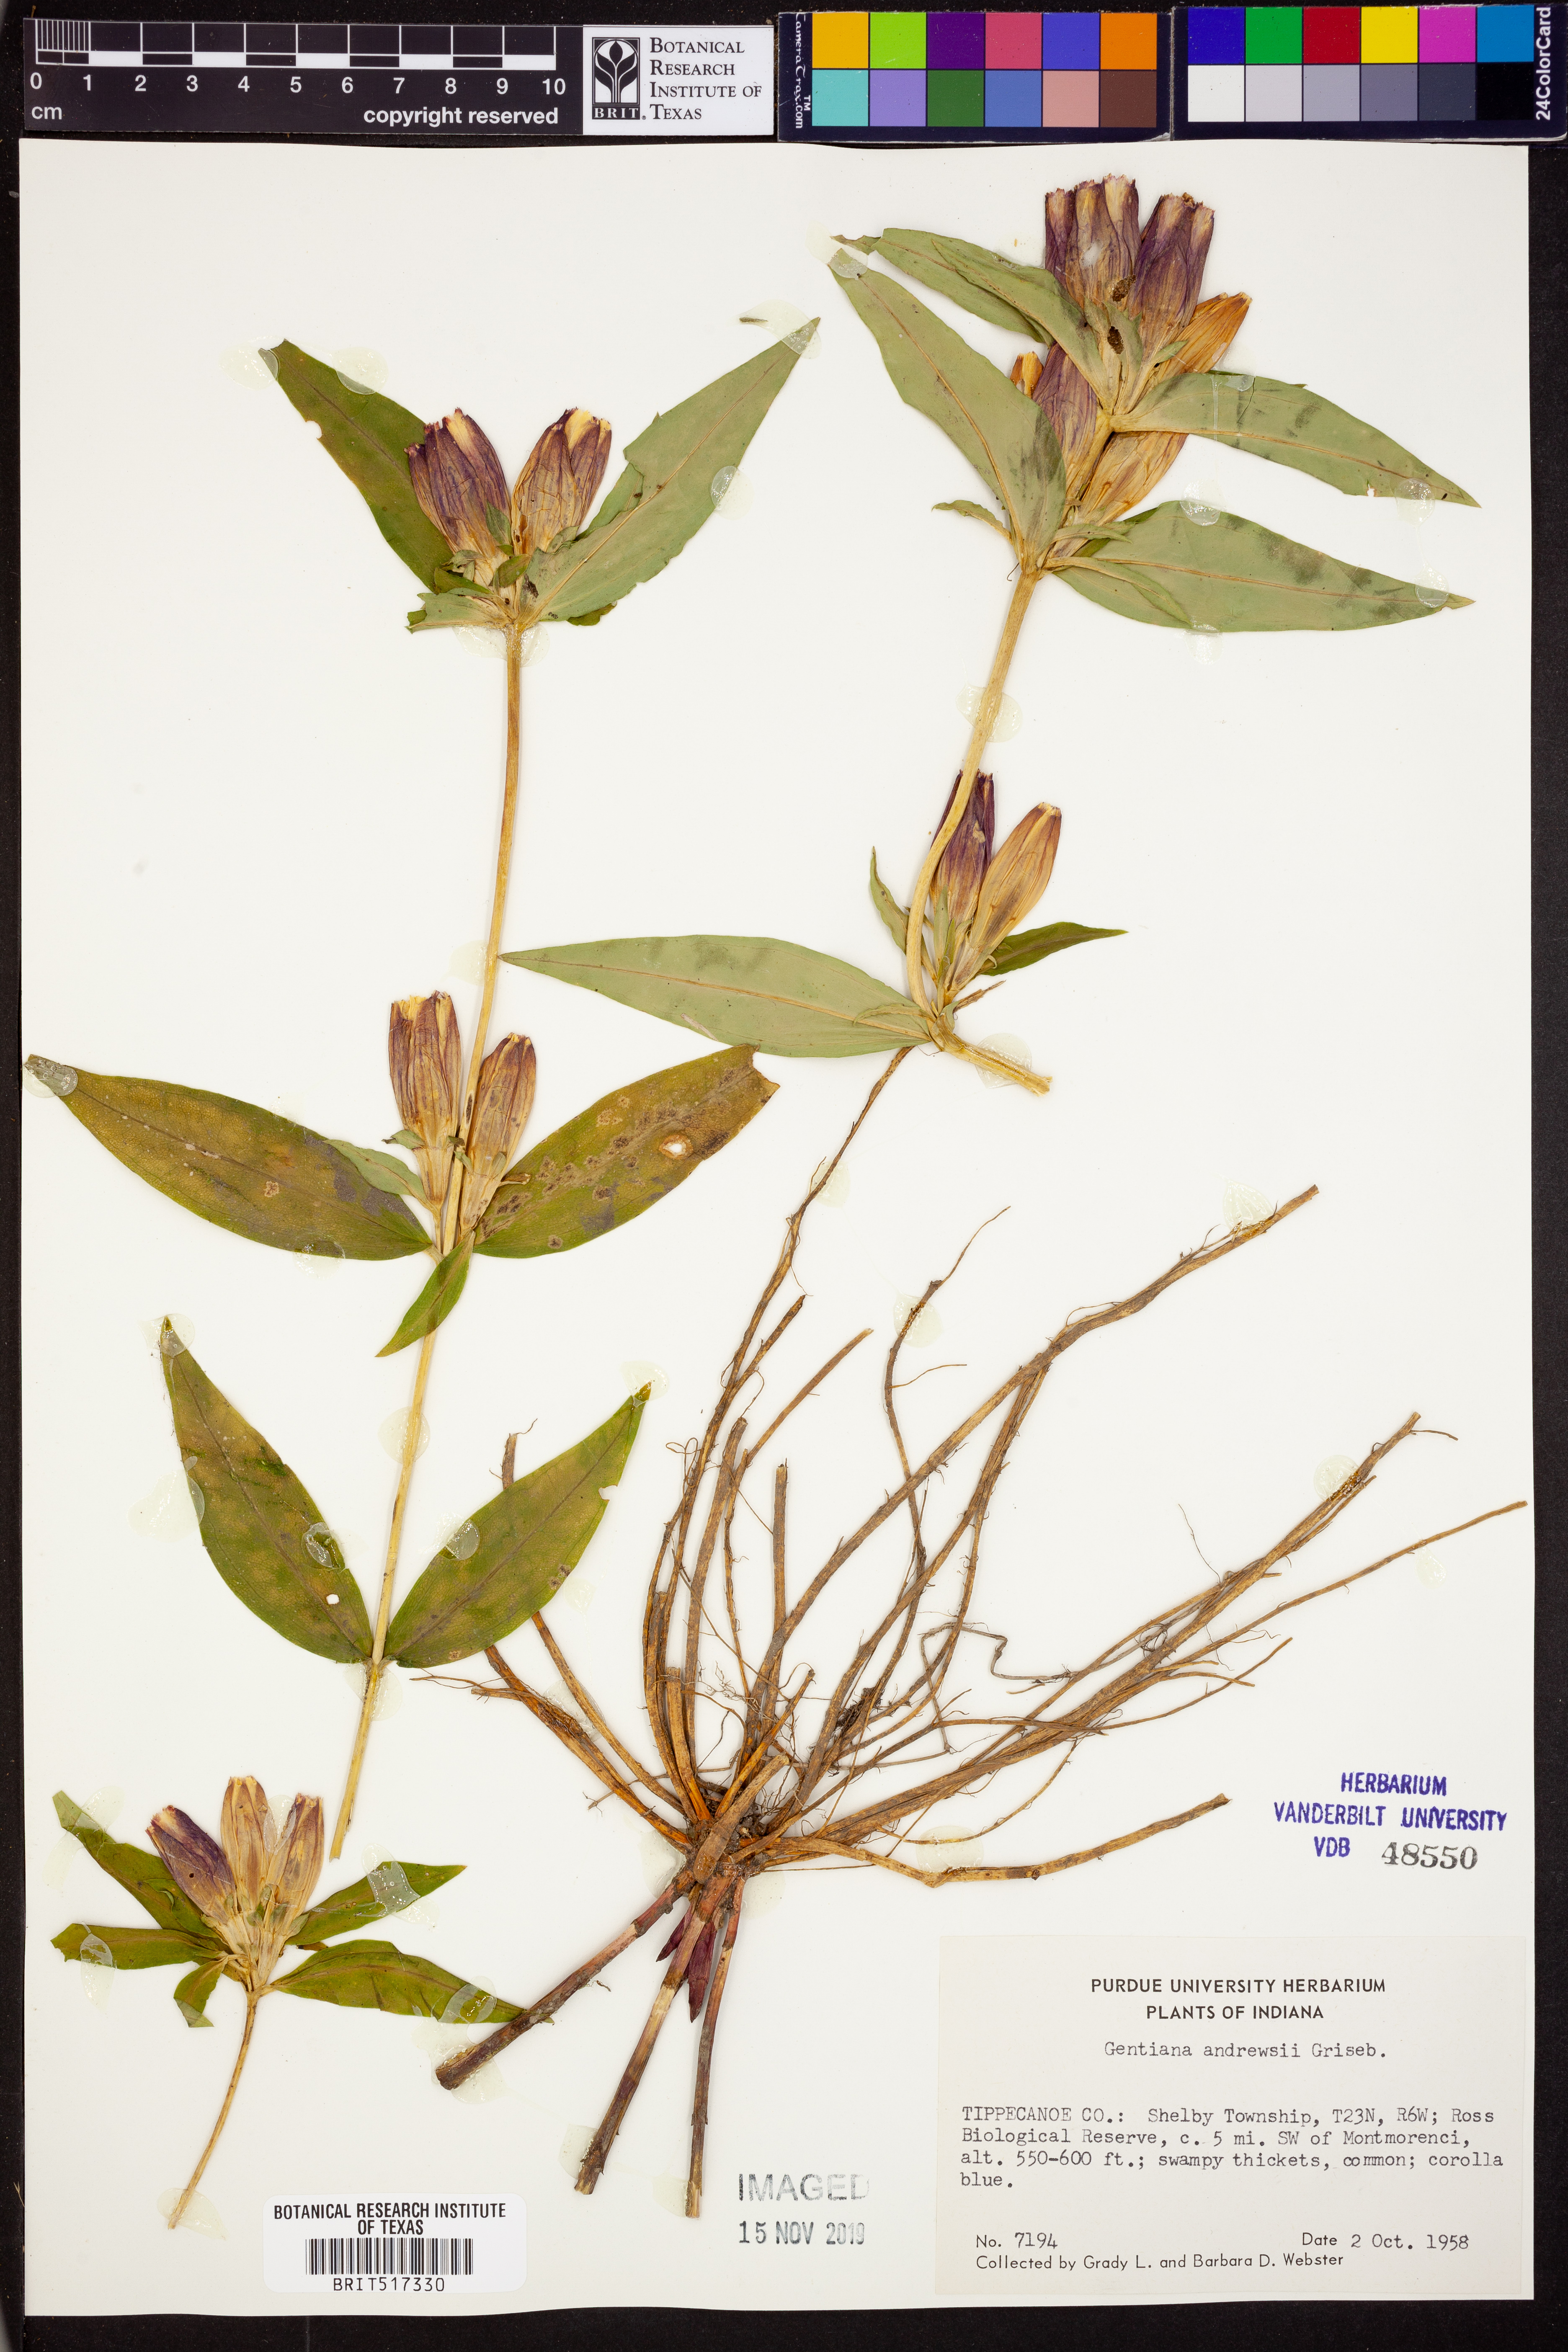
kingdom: Plantae
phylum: Tracheophyta
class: Magnoliopsida
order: Gentianales
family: Gentianaceae
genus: Gentiana
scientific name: Gentiana andrewsii
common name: Bottle gentian
